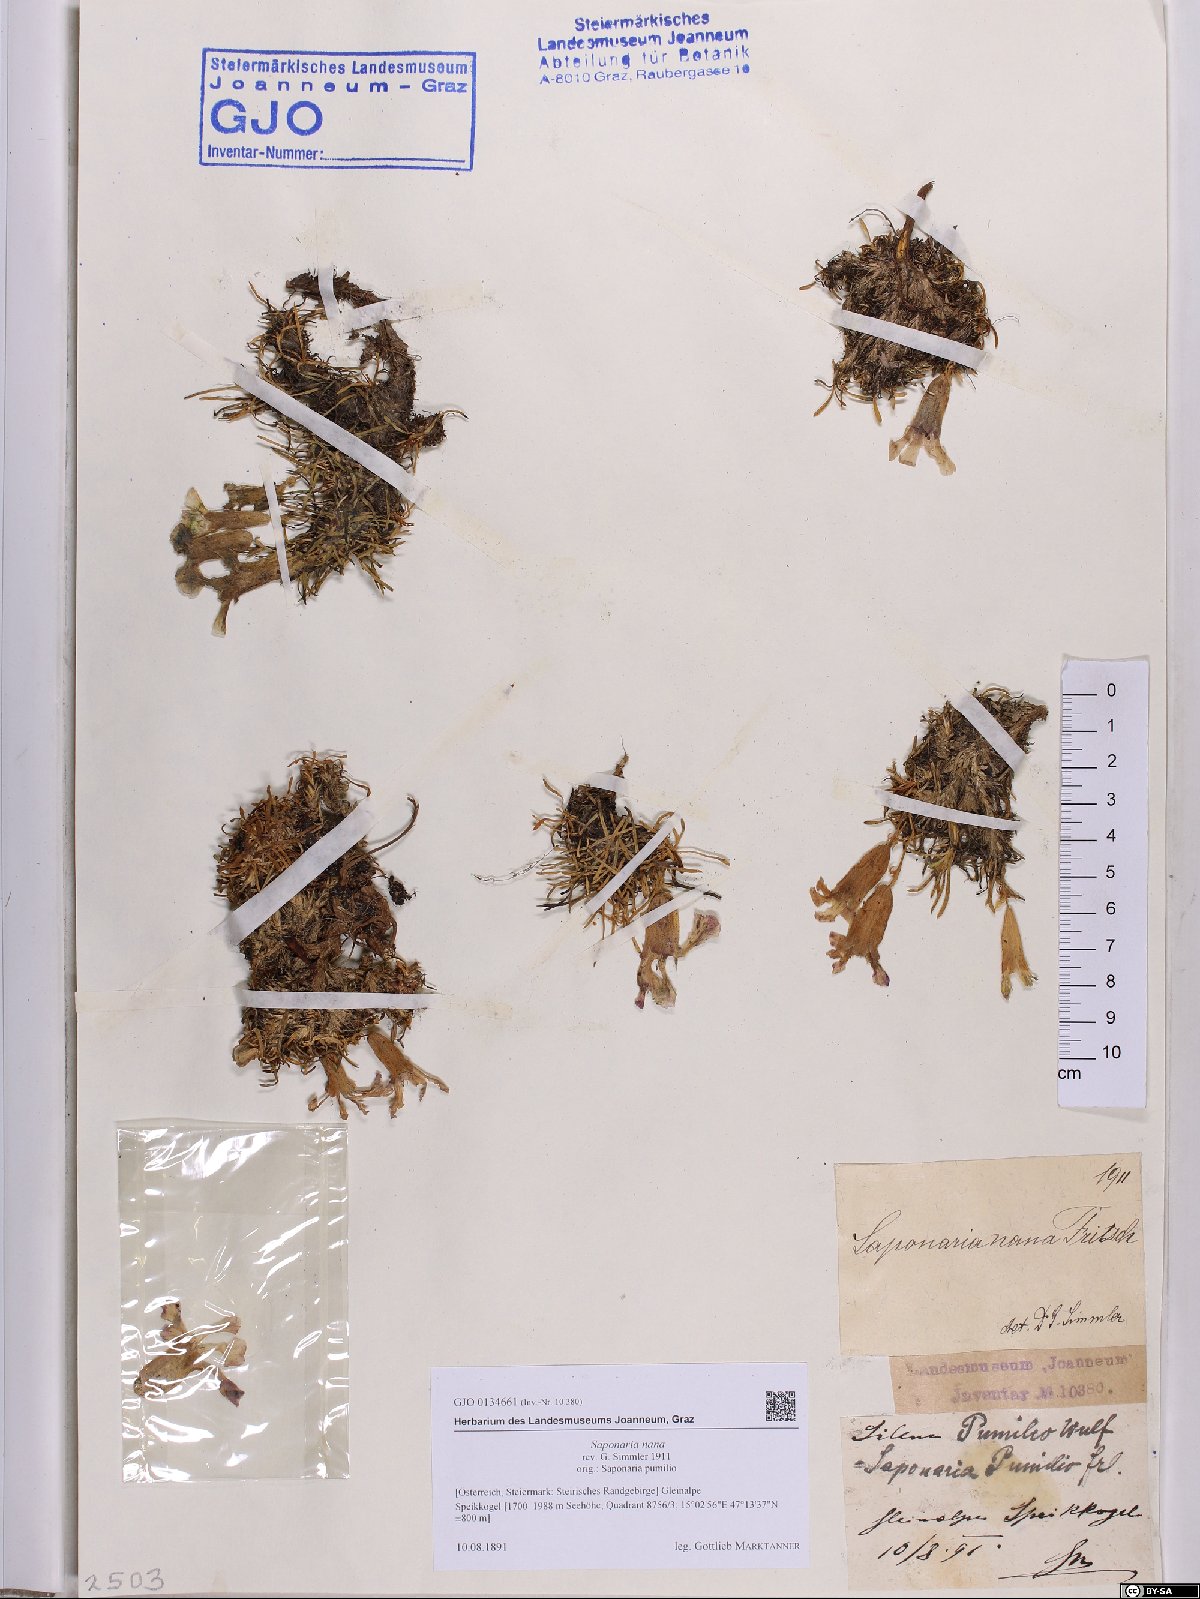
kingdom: Plantae
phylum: Tracheophyta
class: Magnoliopsida
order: Caryophyllales
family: Caryophyllaceae
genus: Saponaria
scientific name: Saponaria pumila
